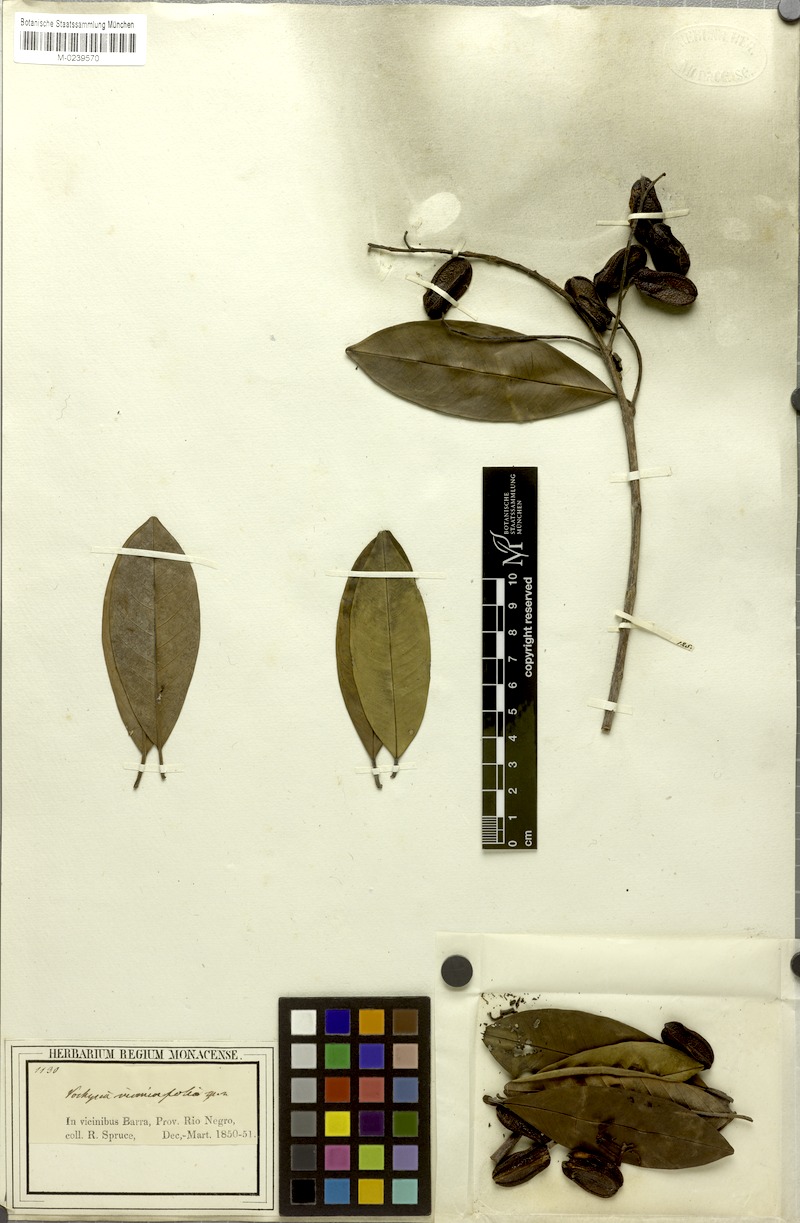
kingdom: Plantae
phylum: Tracheophyta
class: Magnoliopsida
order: Myrtales
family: Vochysiaceae
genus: Vochysia
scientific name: Vochysia vismiifolia
